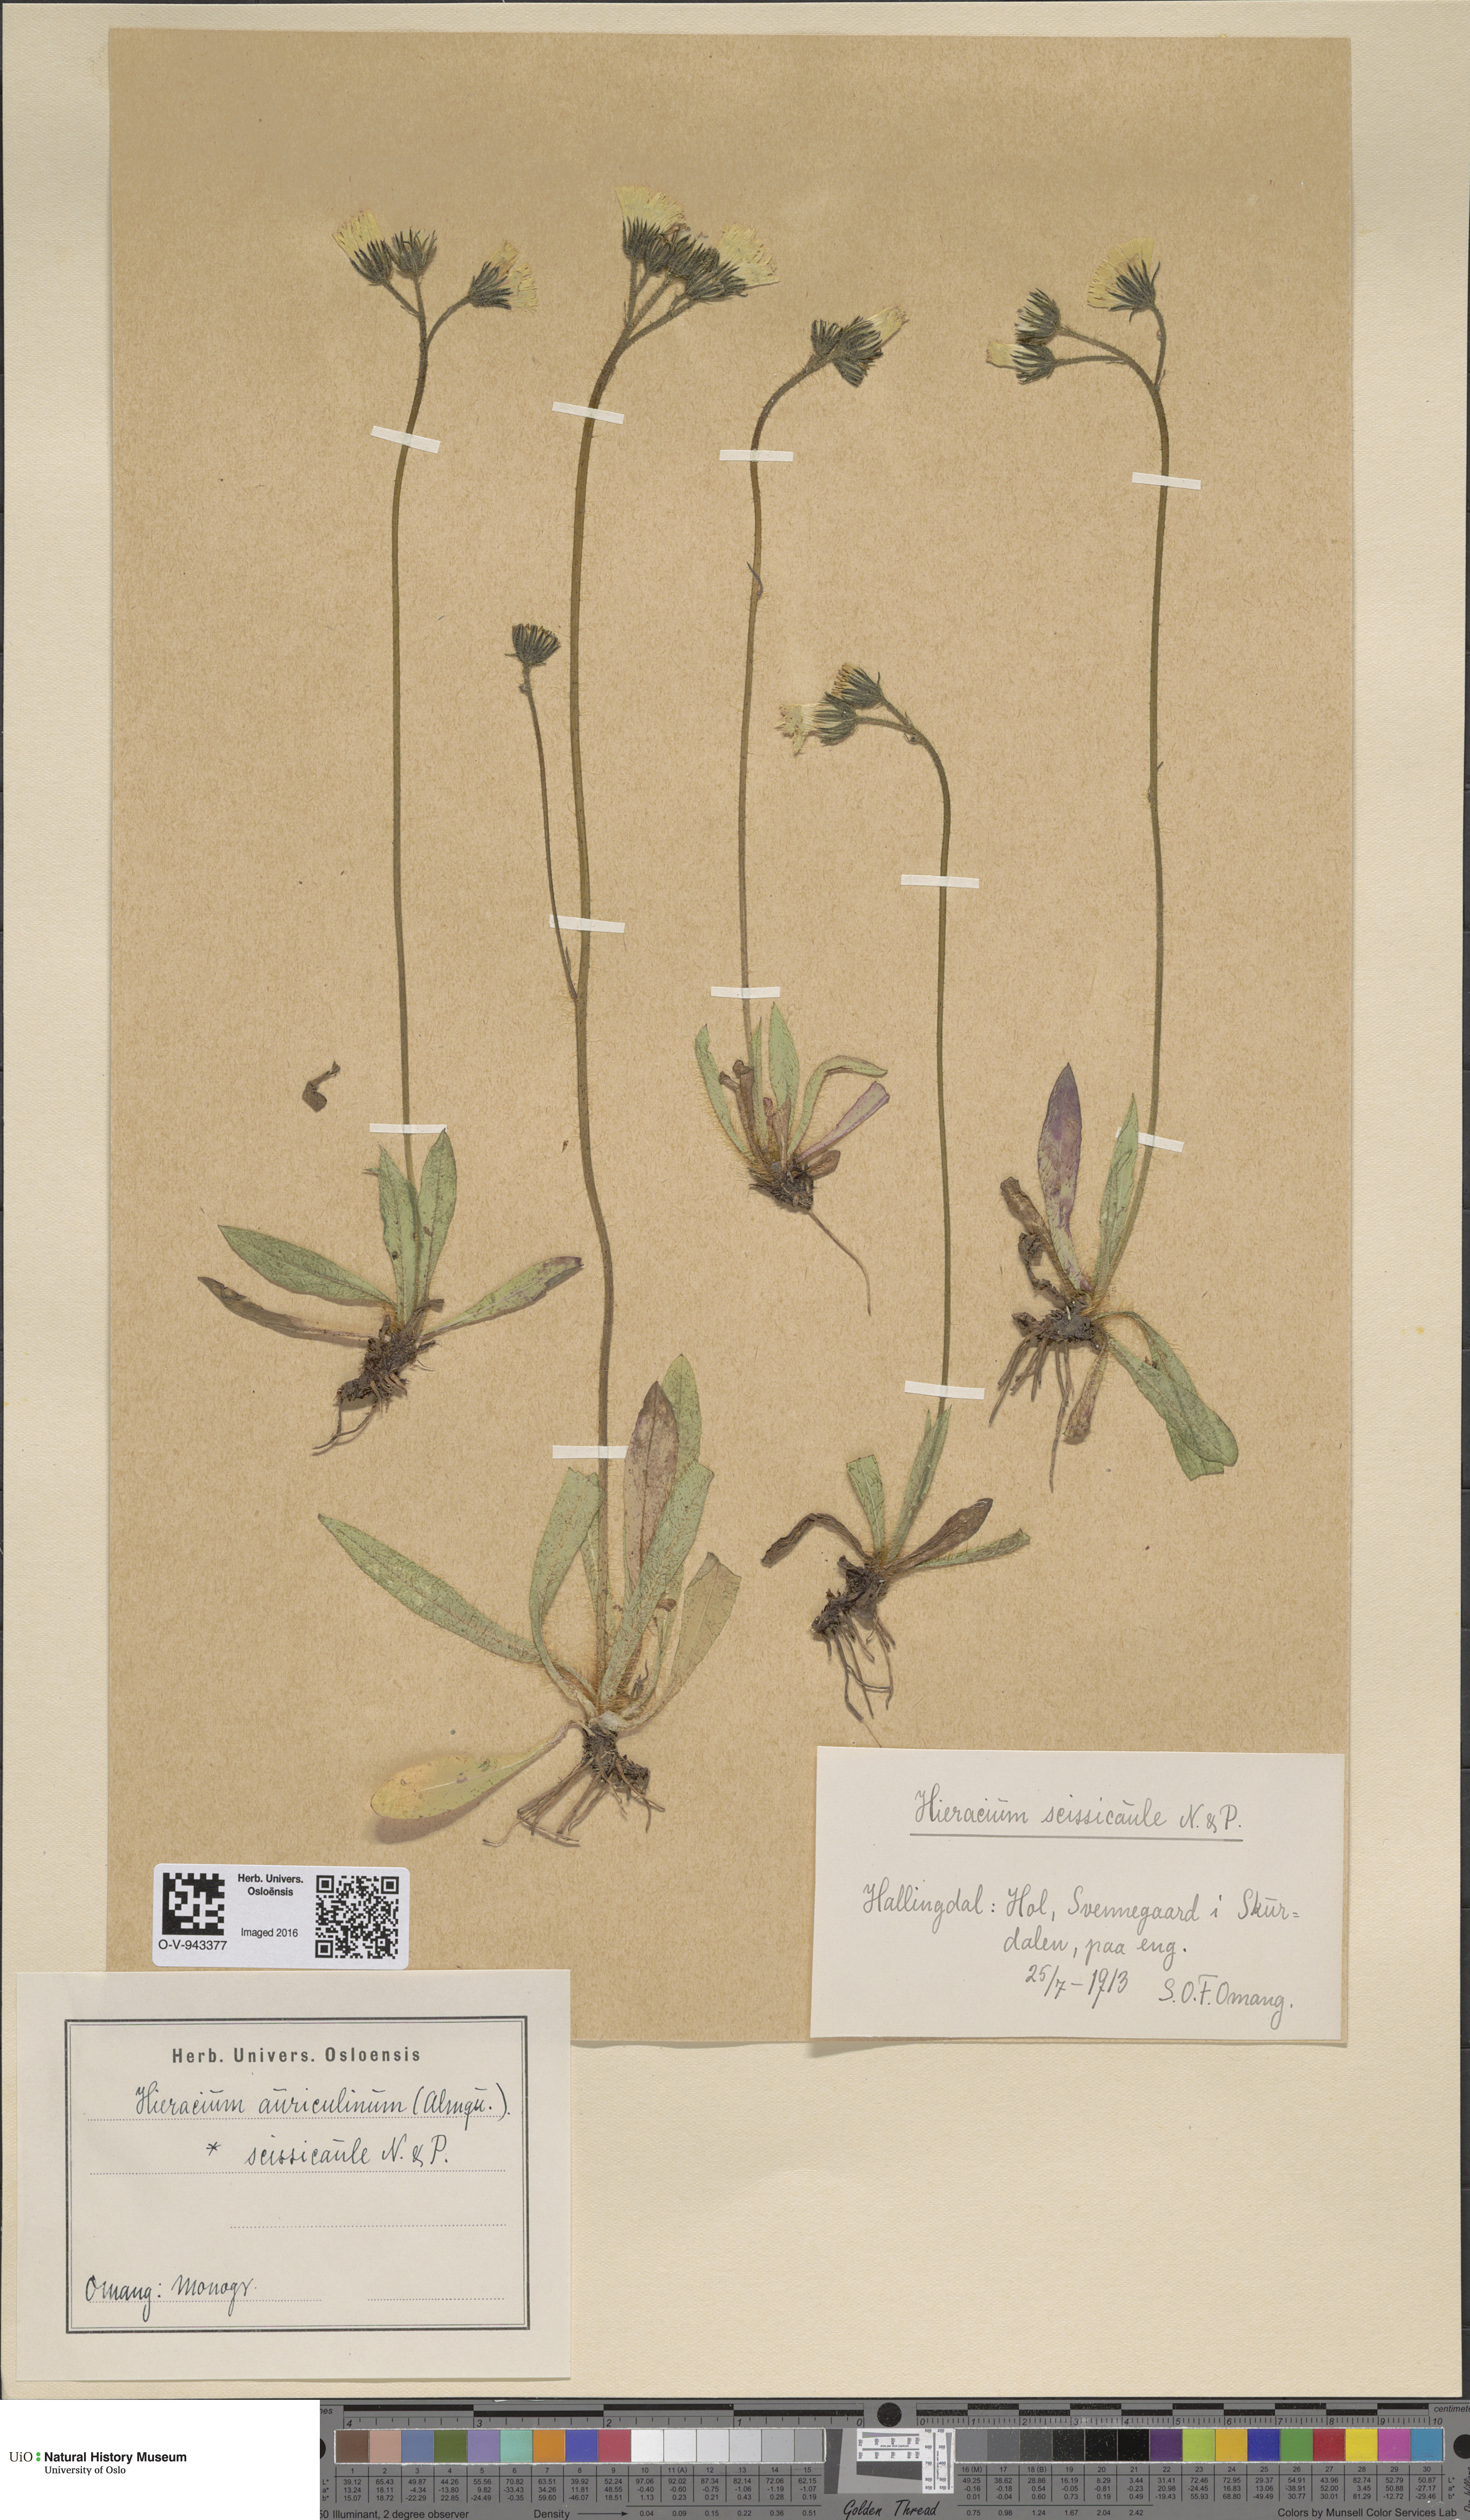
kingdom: Plantae
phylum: Tracheophyta
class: Magnoliopsida
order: Asterales
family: Asteraceae
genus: Pilosella
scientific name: Pilosella dubia
